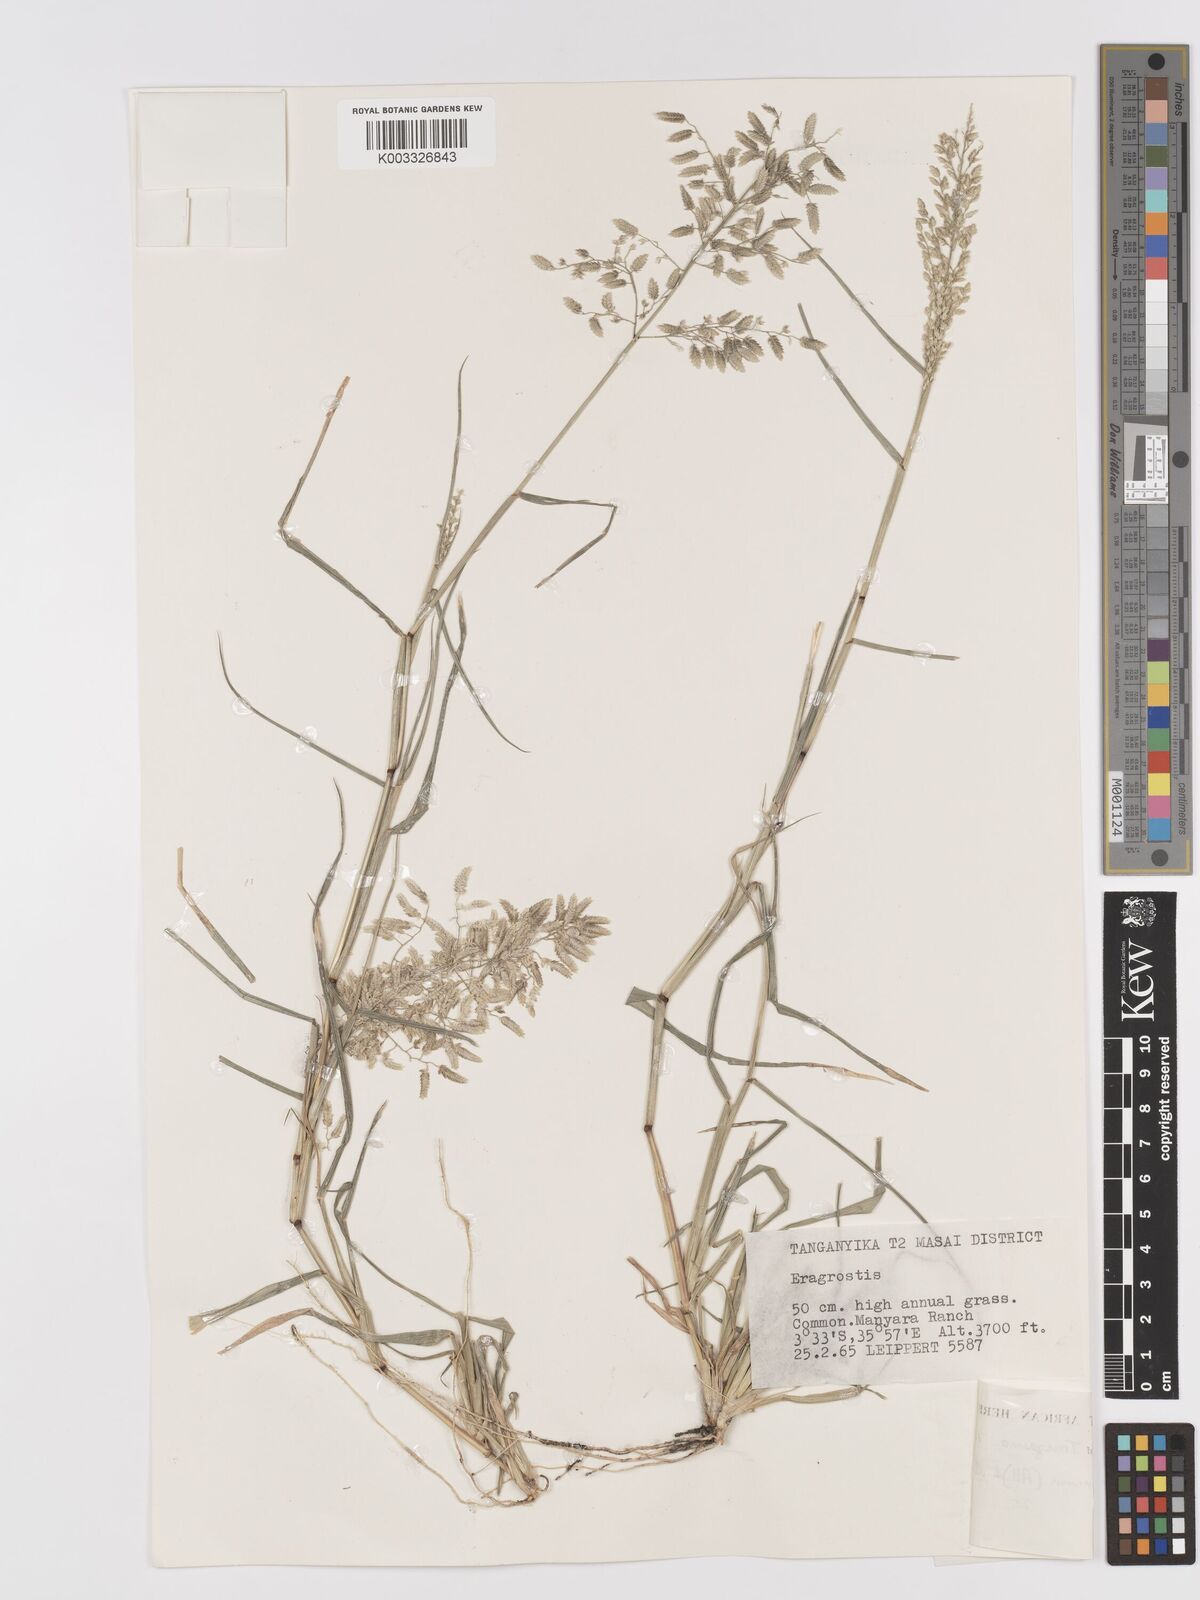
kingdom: Plantae
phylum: Tracheophyta
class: Liliopsida
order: Poales
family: Poaceae
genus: Eragrostis
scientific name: Eragrostis cilianensis
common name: Stinkgrass
